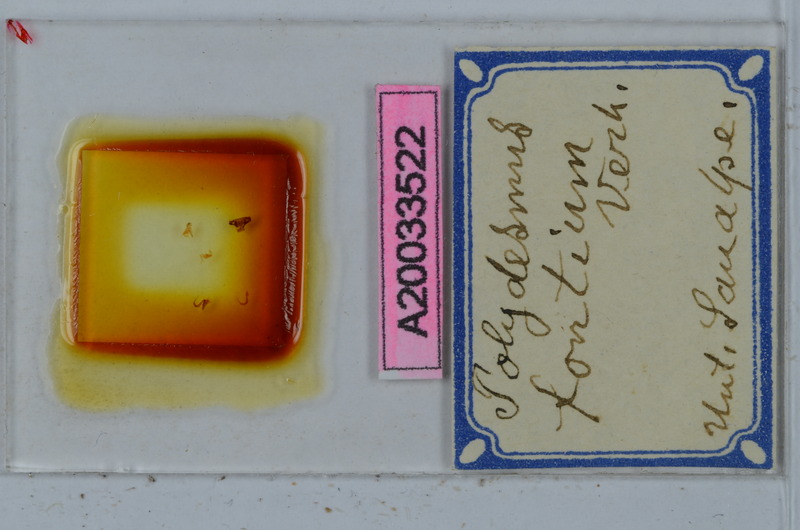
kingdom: Animalia
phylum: Arthropoda
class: Diplopoda
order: Polydesmida
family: Polydesmidae
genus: Polydesmus
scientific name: Polydesmus fontium
